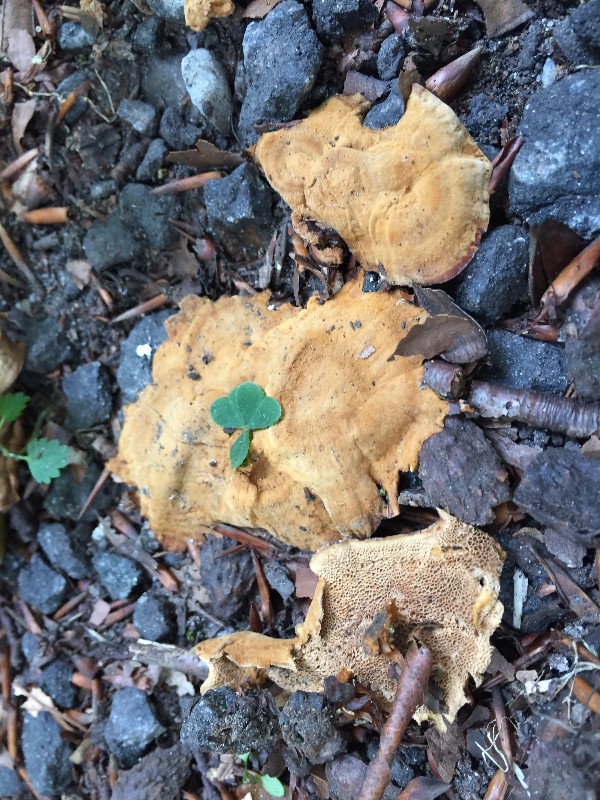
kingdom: Fungi
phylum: Basidiomycota
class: Agaricomycetes
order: Hymenochaetales
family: Hymenochaetaceae
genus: Coltricia
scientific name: Coltricia confluens
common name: park-sandporesvamp
